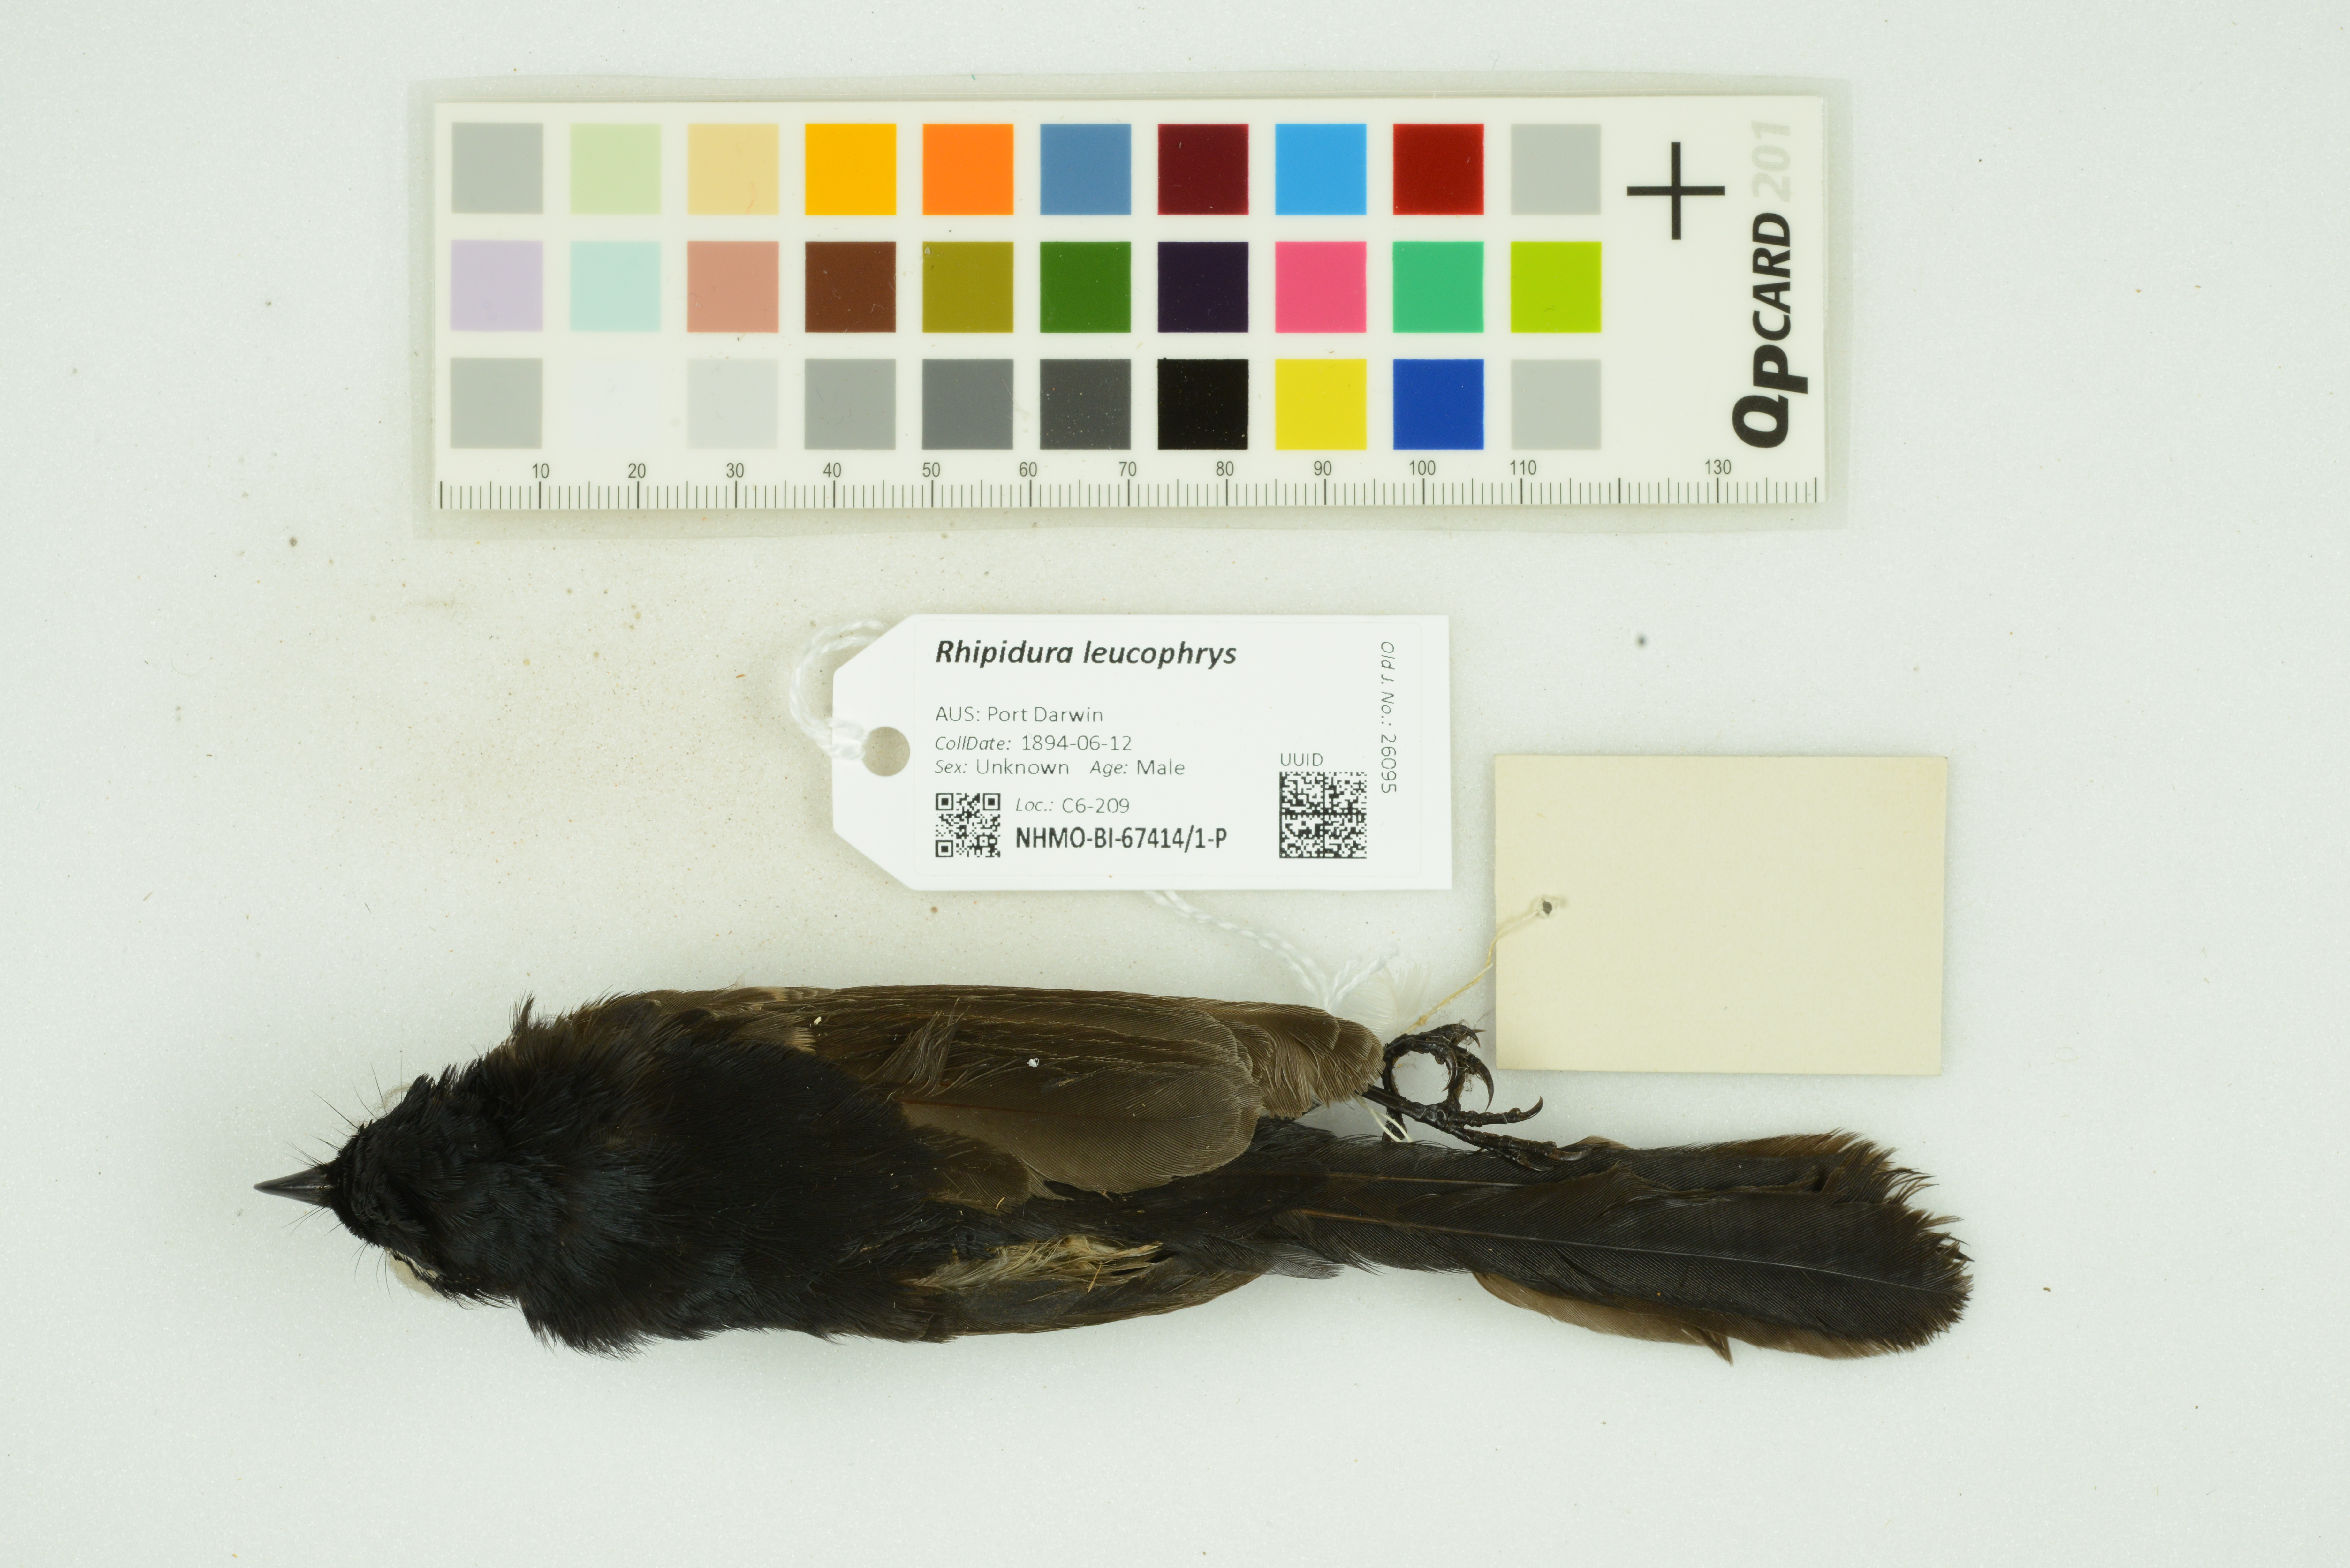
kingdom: Animalia
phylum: Chordata
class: Aves
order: Passeriformes
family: Rhipiduridae
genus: Rhipidura
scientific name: Rhipidura leucophrys
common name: Willie wagtail
